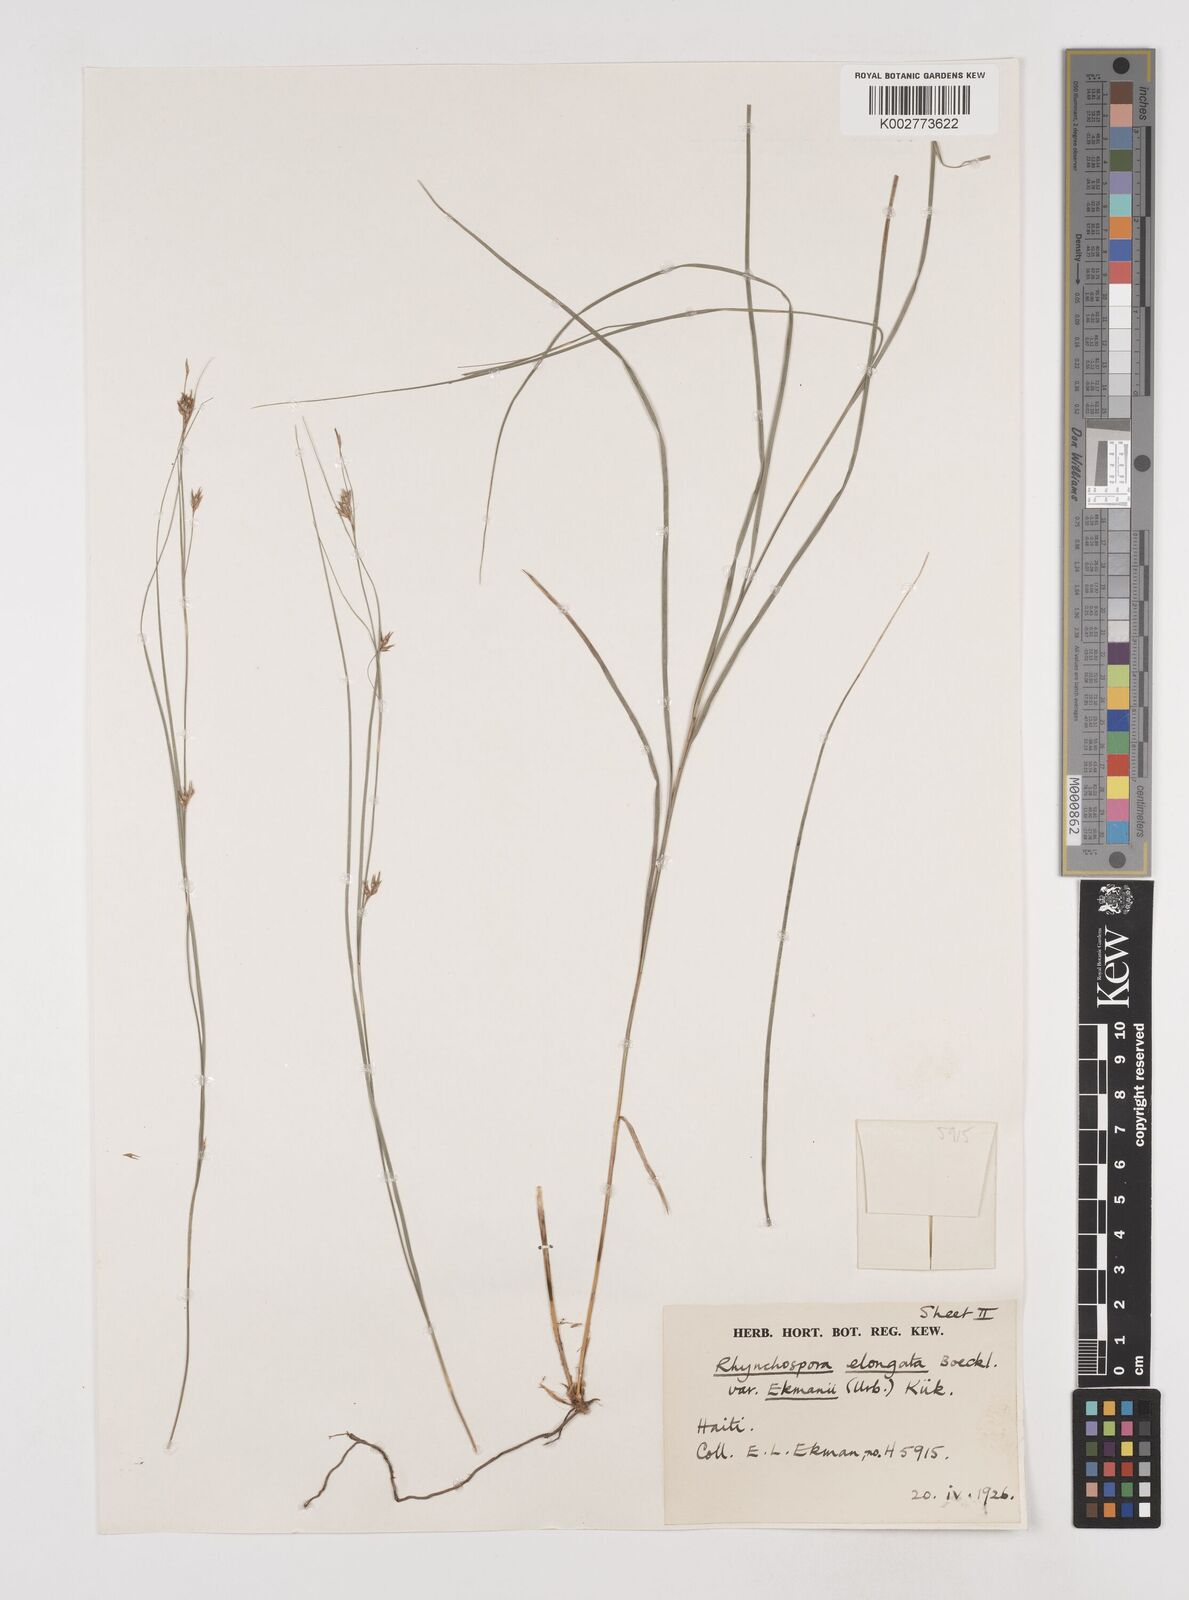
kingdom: Plantae
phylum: Tracheophyta
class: Liliopsida
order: Poales
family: Cyperaceae
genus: Rhynchospora
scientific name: Rhynchospora biflora
